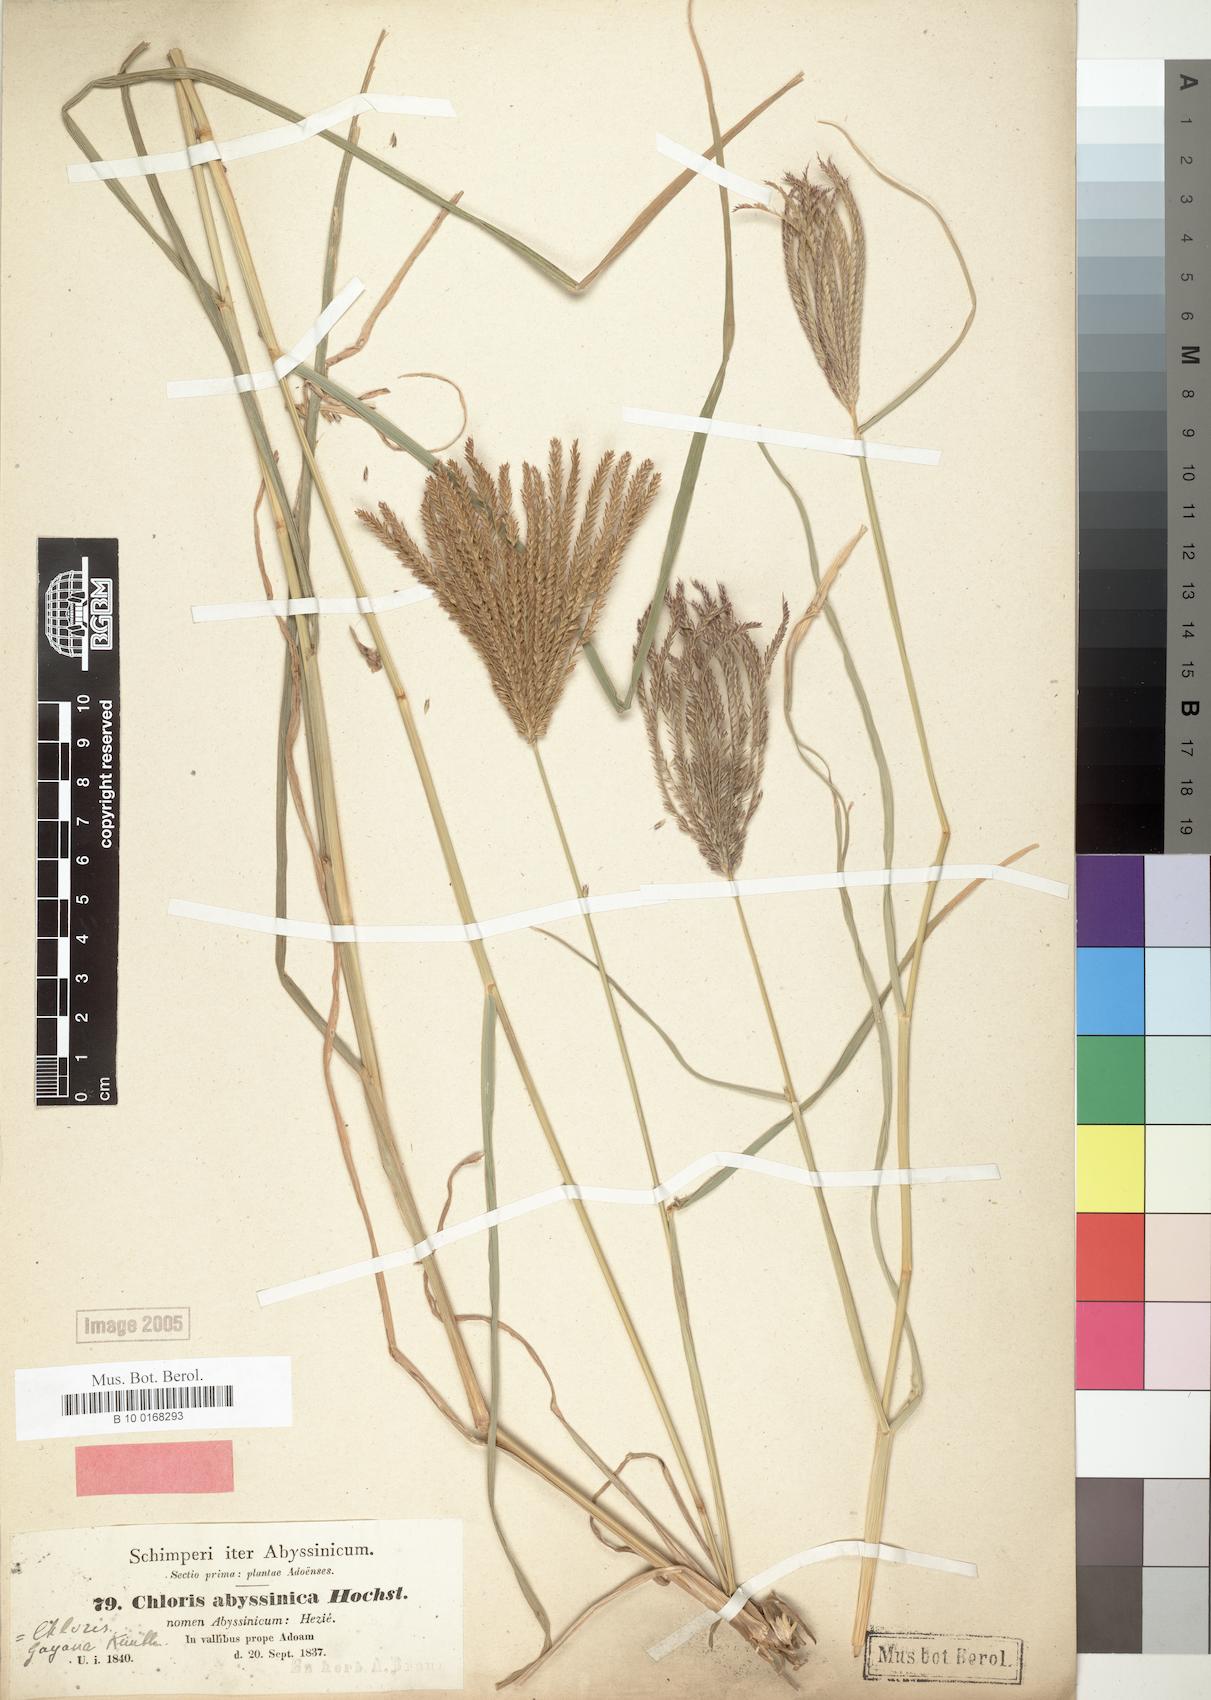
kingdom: Plantae
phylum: Tracheophyta
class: Liliopsida
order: Poales
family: Poaceae
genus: Chloris
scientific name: Chloris gayana
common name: Rhodes grass
